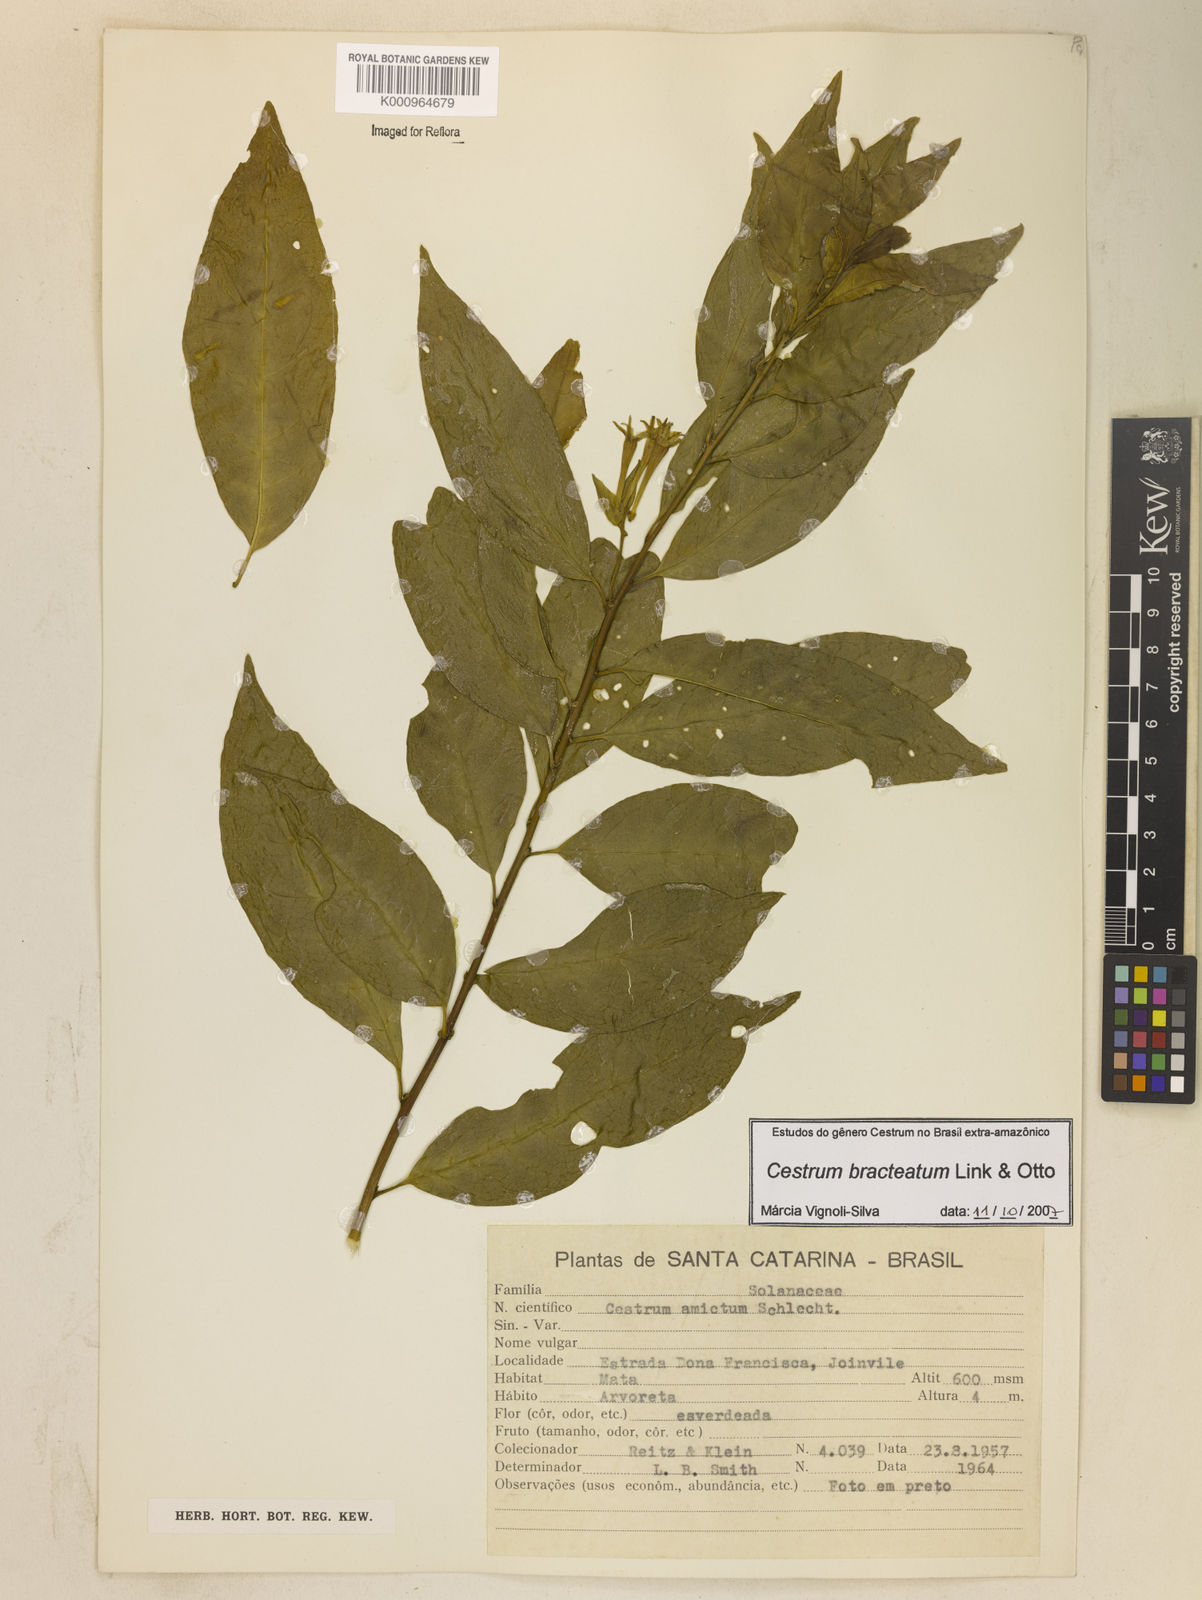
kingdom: Plantae
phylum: Tracheophyta
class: Magnoliopsida
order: Solanales
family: Solanaceae
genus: Cestrum
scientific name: Cestrum bracteatum
